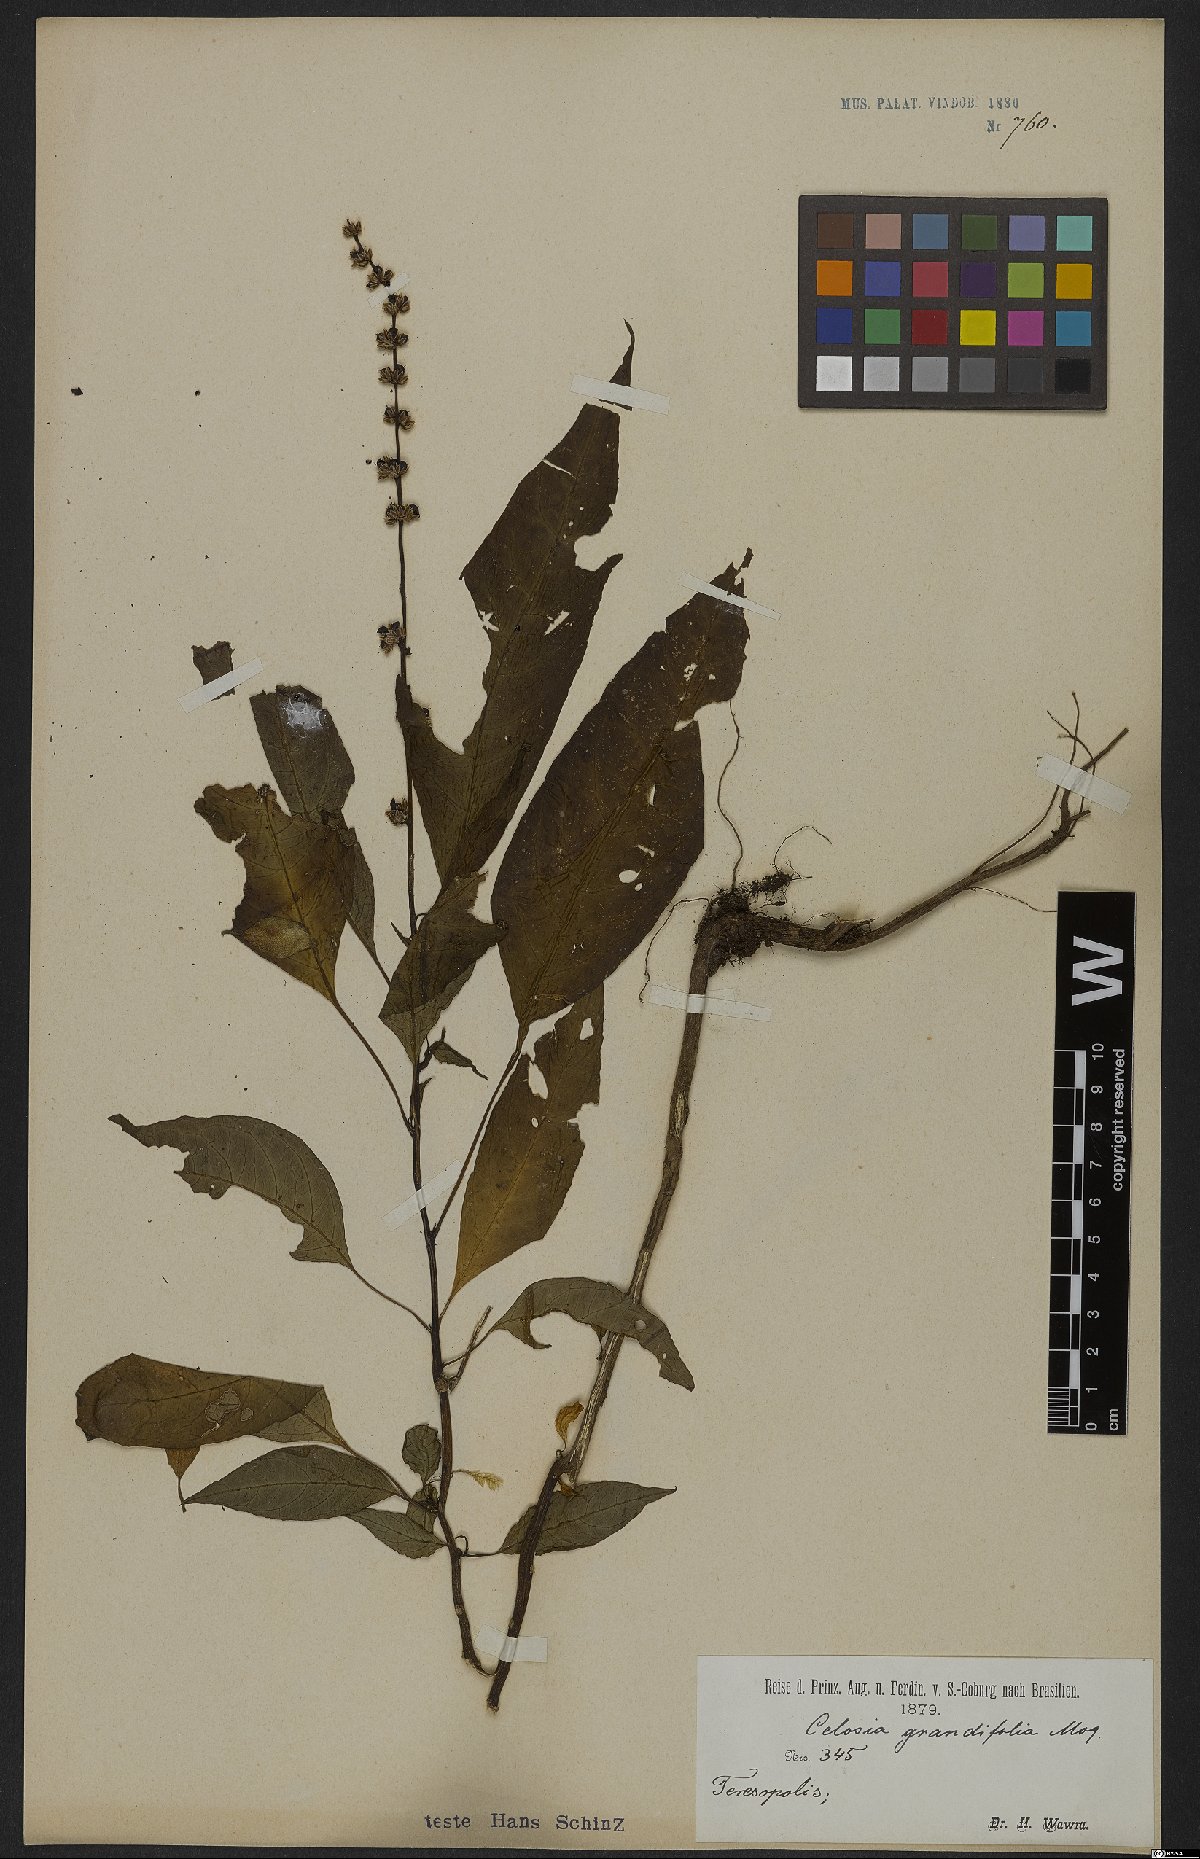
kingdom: Plantae
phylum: Tracheophyta
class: Magnoliopsida
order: Caryophyllales
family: Amaranthaceae
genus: Celosia
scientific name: Celosia grandifolia
